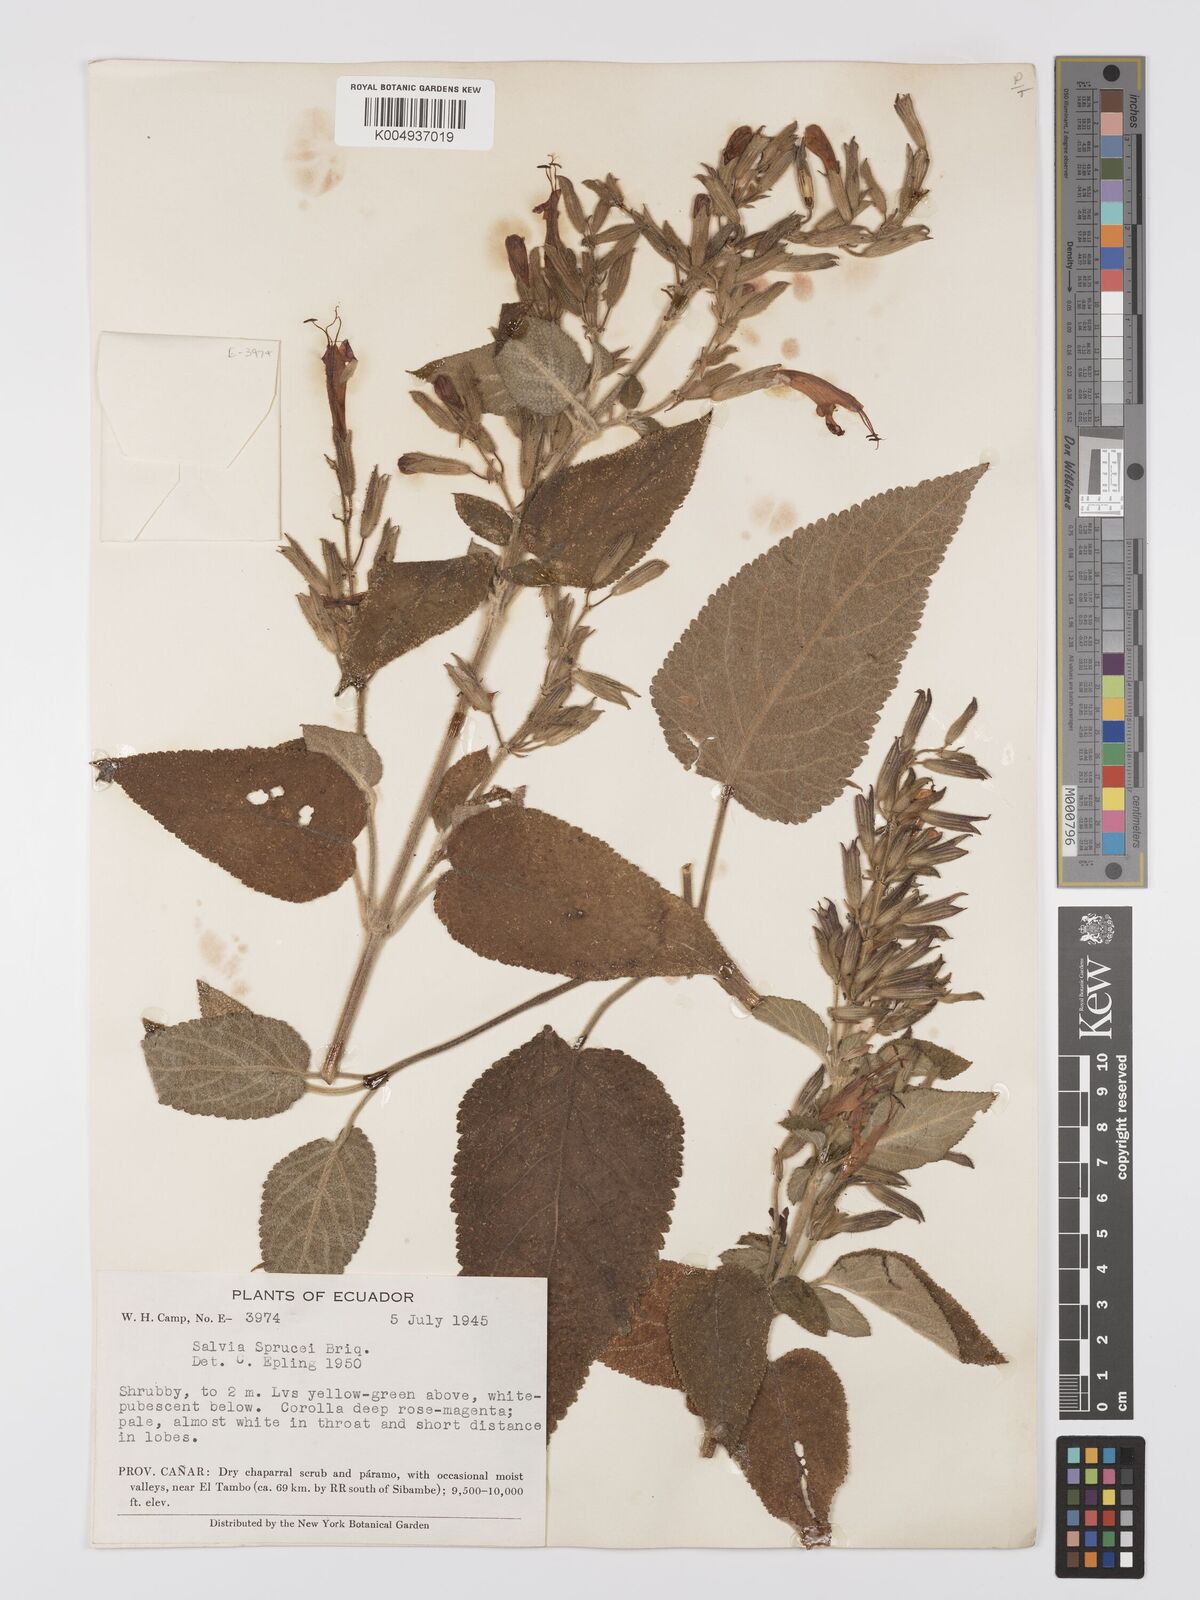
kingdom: Plantae
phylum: Tracheophyta
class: Magnoliopsida
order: Lamiales
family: Lamiaceae
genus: Salvia
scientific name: Salvia sprucei
